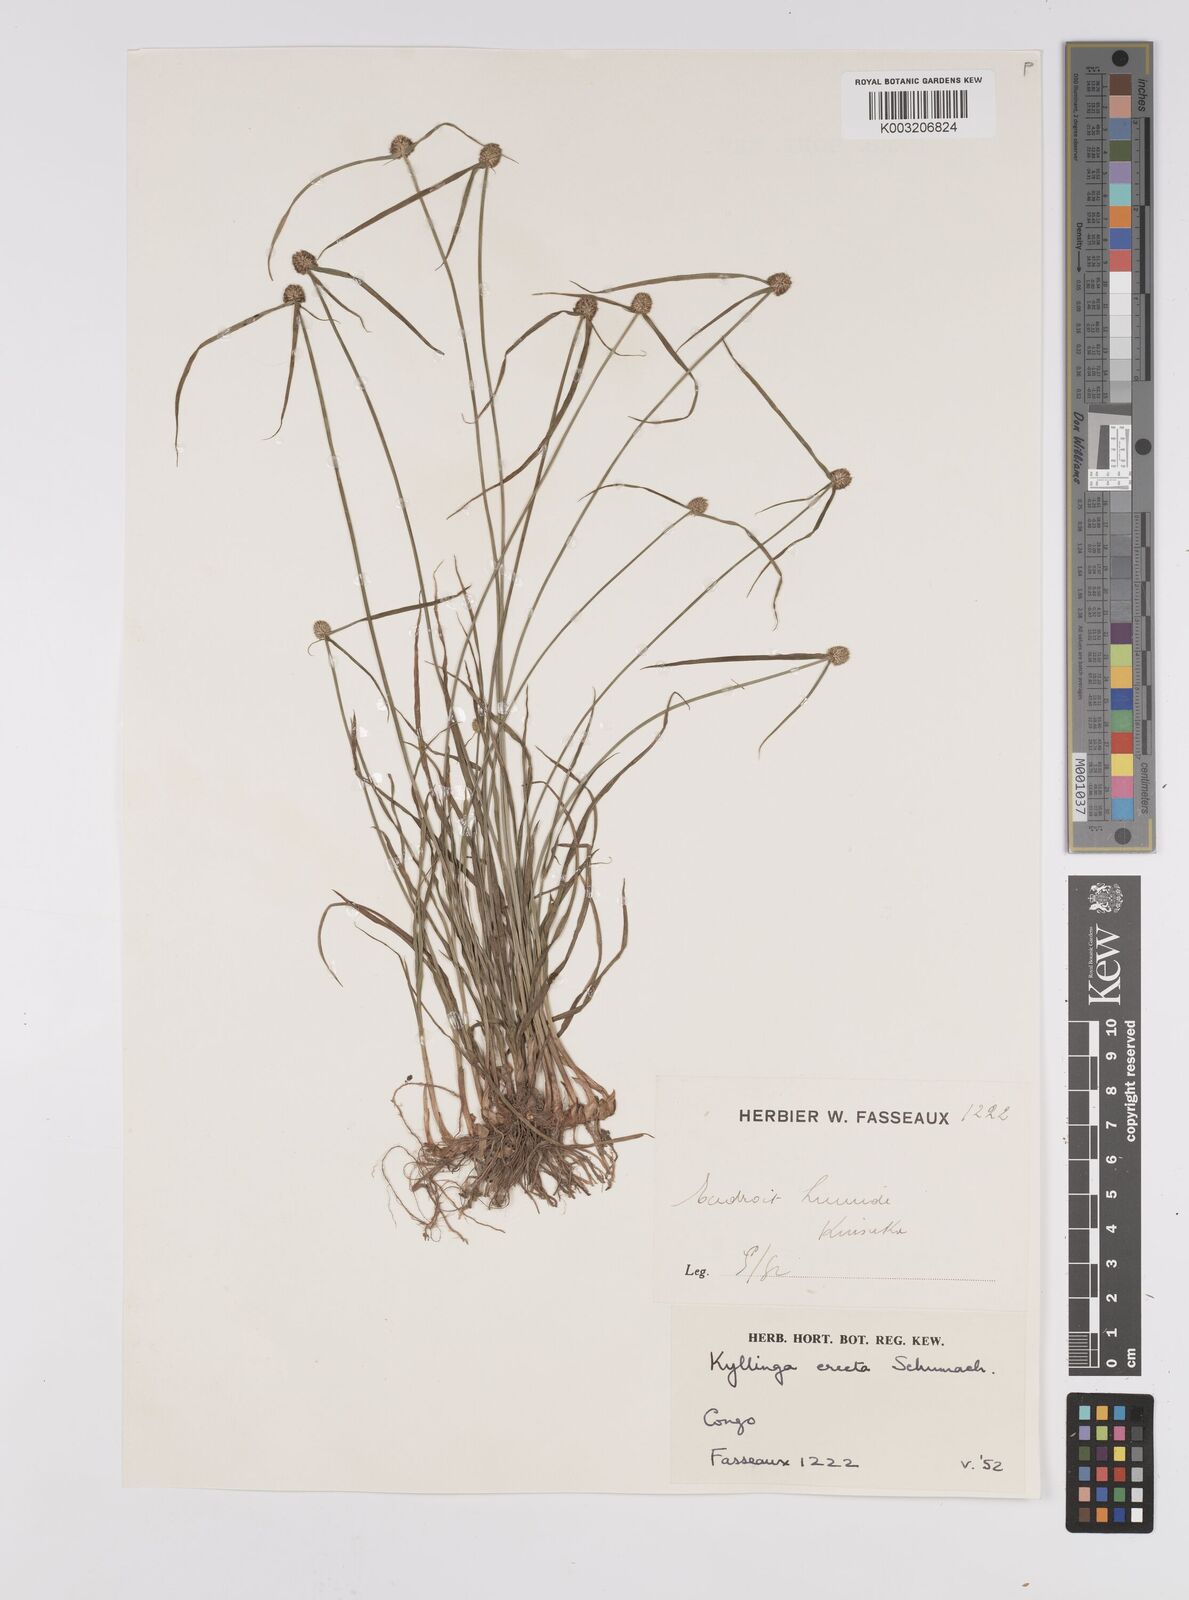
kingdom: Plantae
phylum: Tracheophyta
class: Liliopsida
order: Poales
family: Cyperaceae
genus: Cyperus
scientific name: Cyperus erectus
